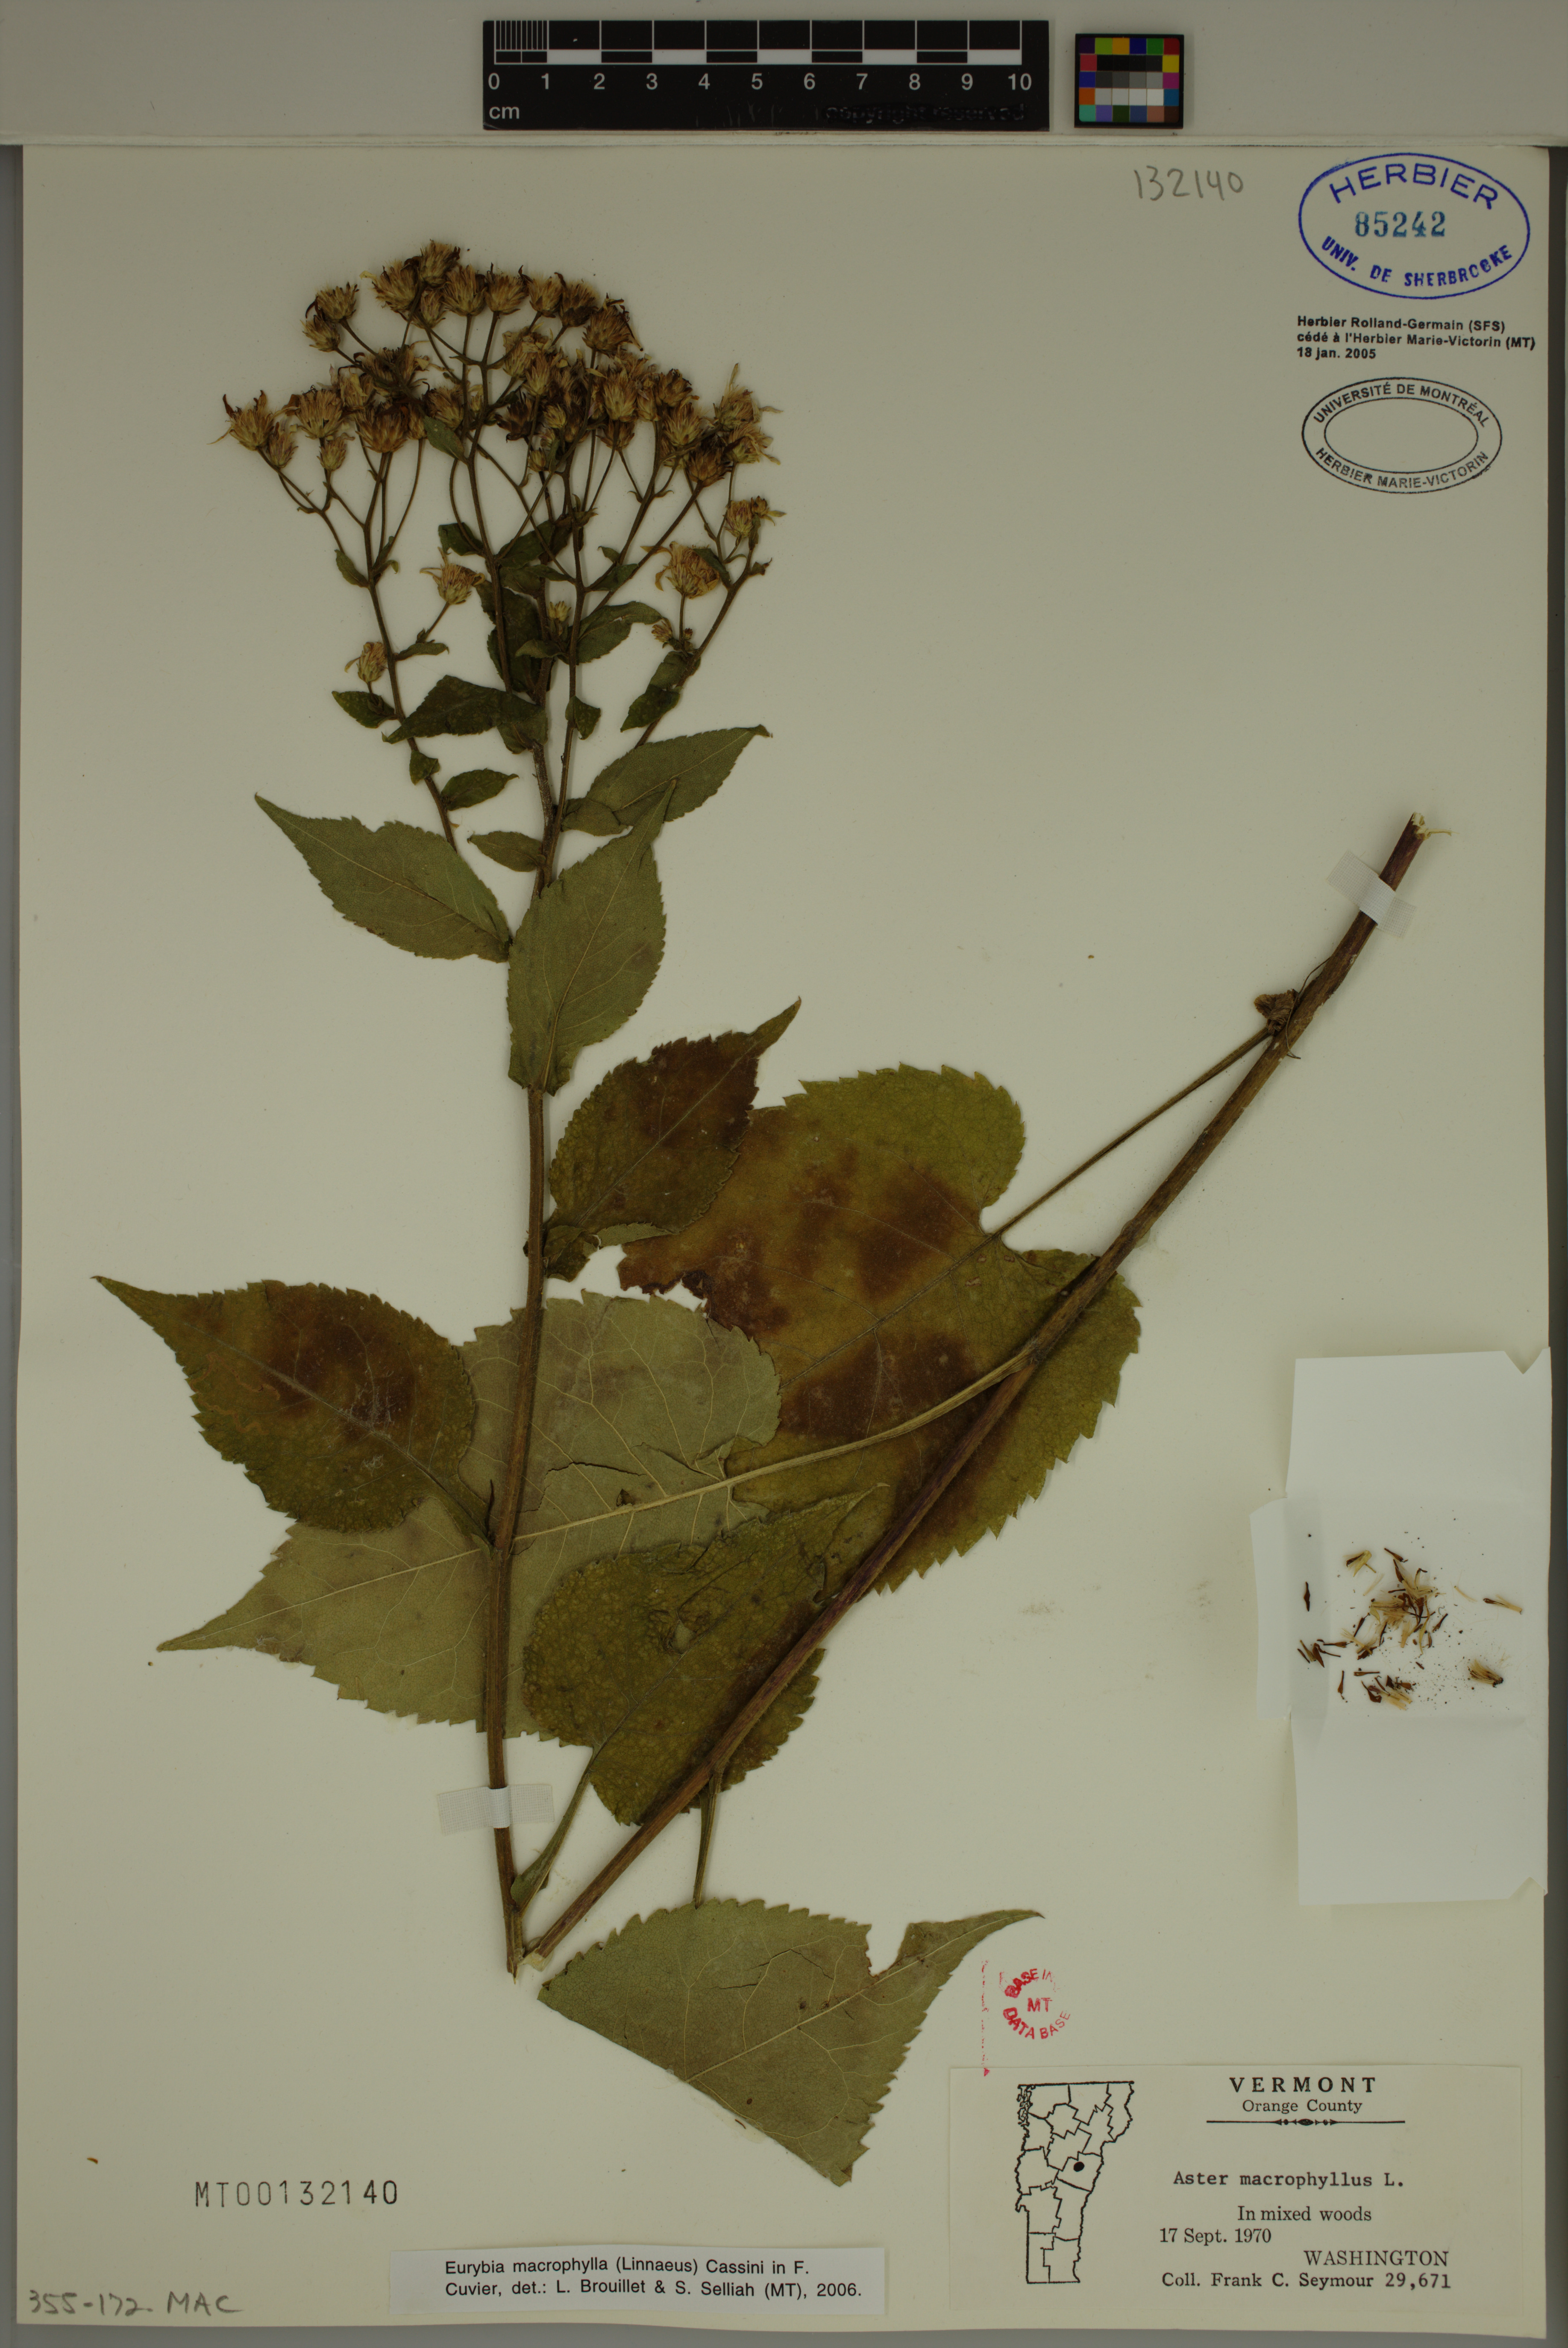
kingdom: Plantae
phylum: Tracheophyta
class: Magnoliopsida
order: Asterales
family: Asteraceae
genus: Eurybia
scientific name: Eurybia macrophylla
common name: Big-leaved aster
